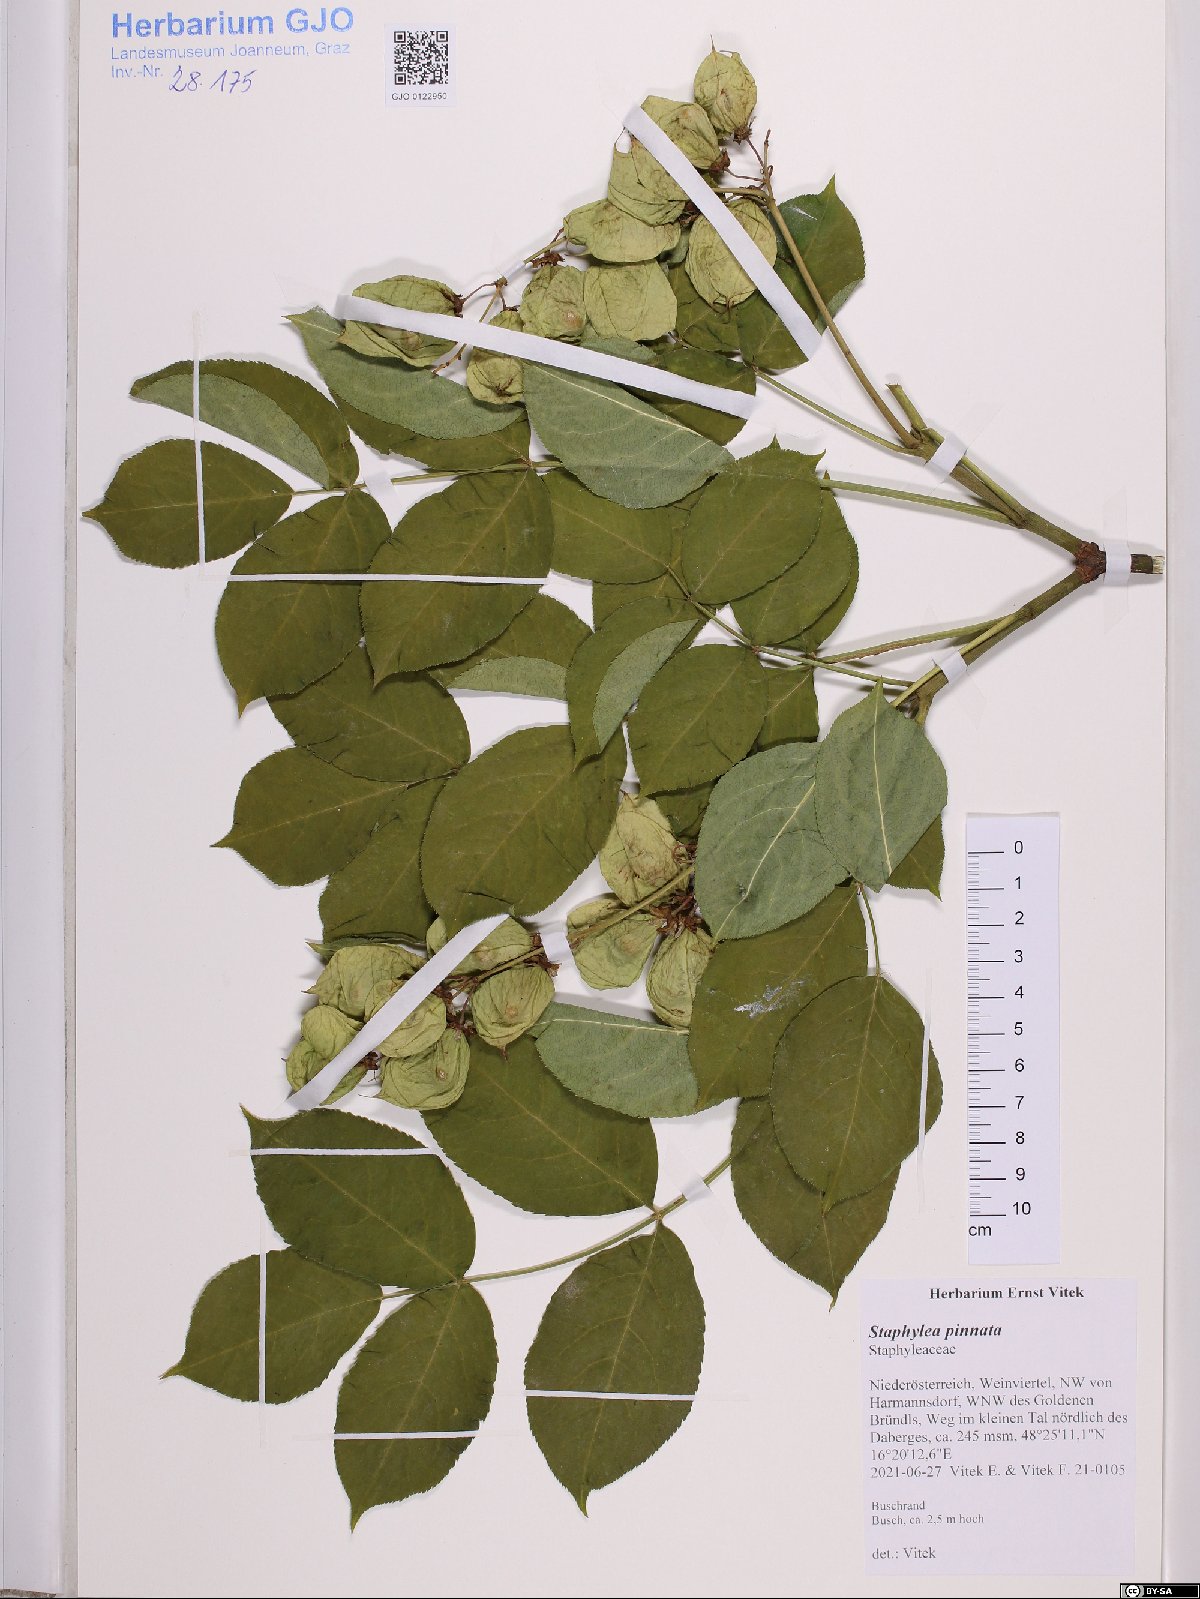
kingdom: Plantae
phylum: Tracheophyta
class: Magnoliopsida
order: Crossosomatales
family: Staphyleaceae
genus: Staphylea
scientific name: Staphylea pinnata
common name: Bladdernut
